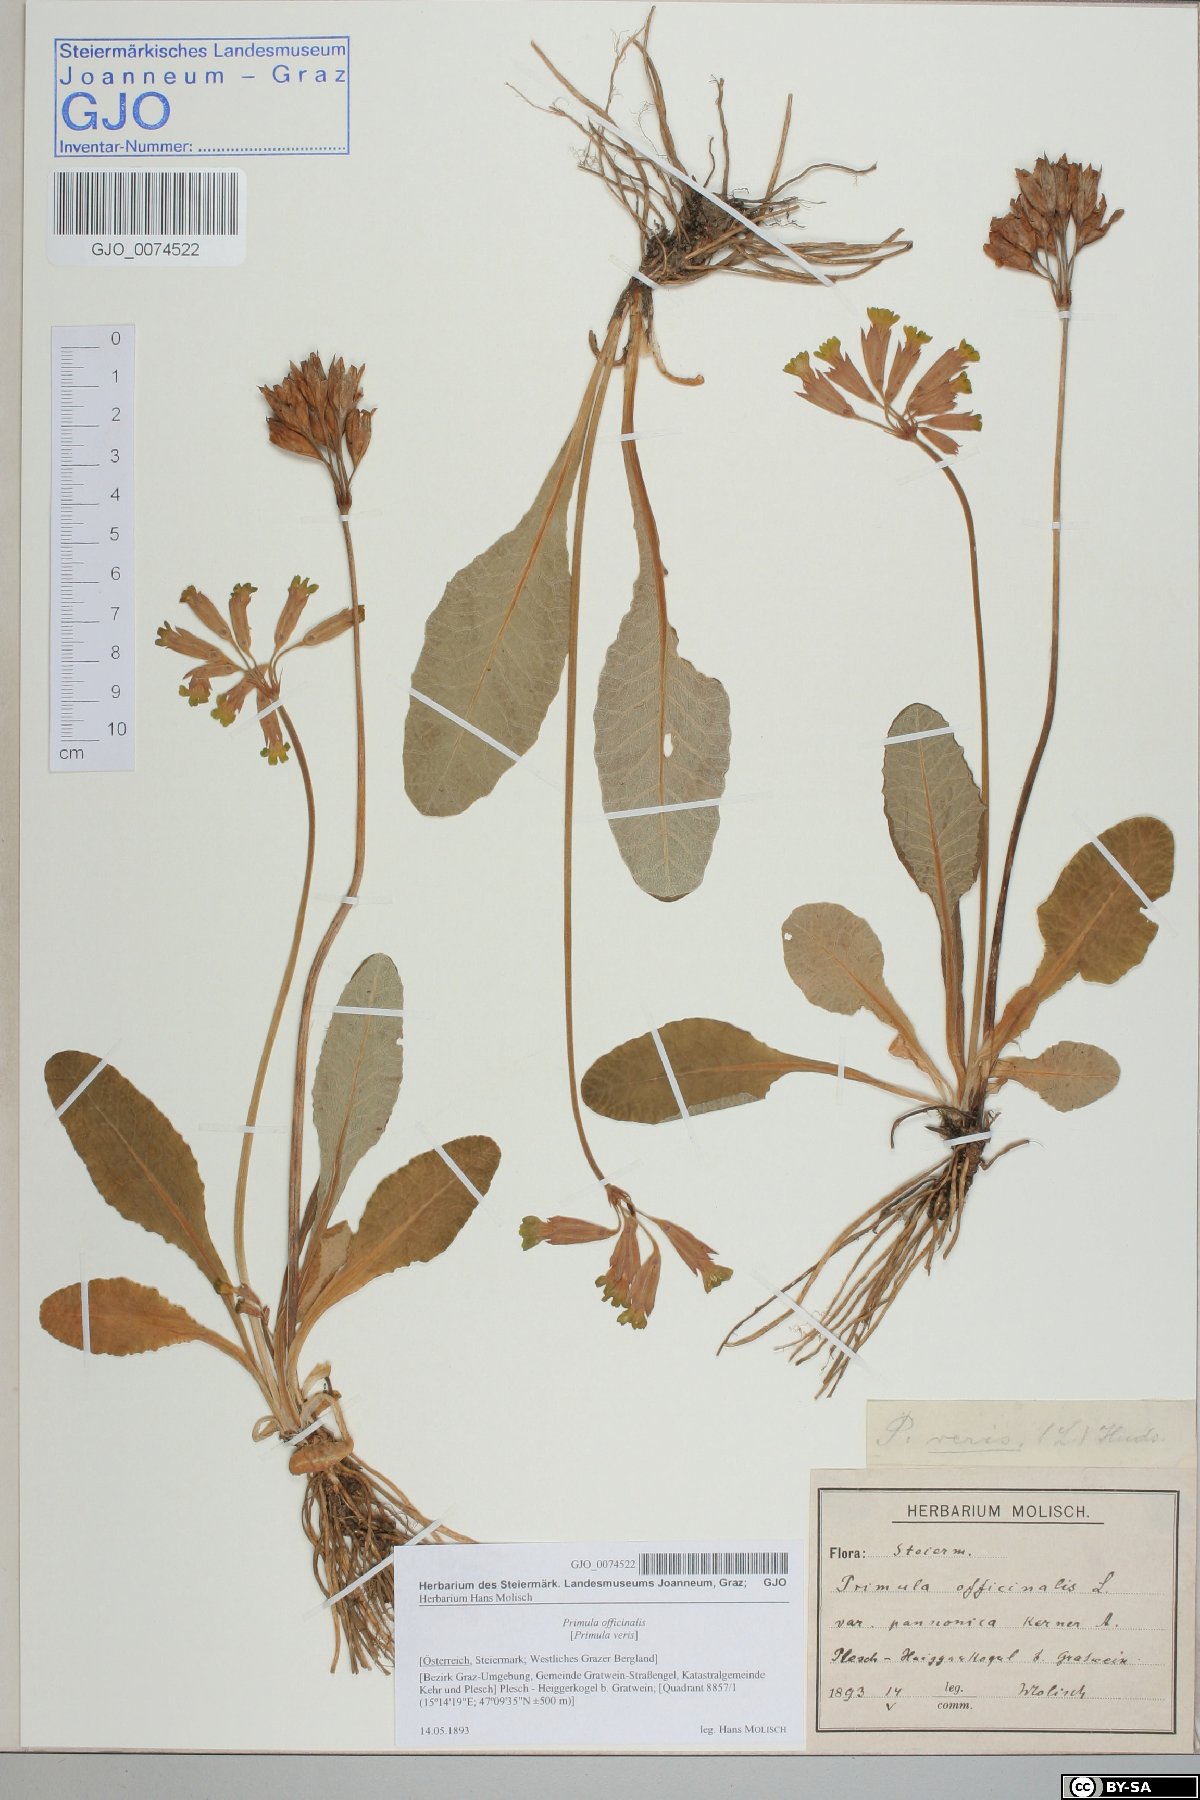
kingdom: Plantae
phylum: Tracheophyta
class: Magnoliopsida
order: Ericales
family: Primulaceae
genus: Primula
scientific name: Primula veris
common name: Cowslip
